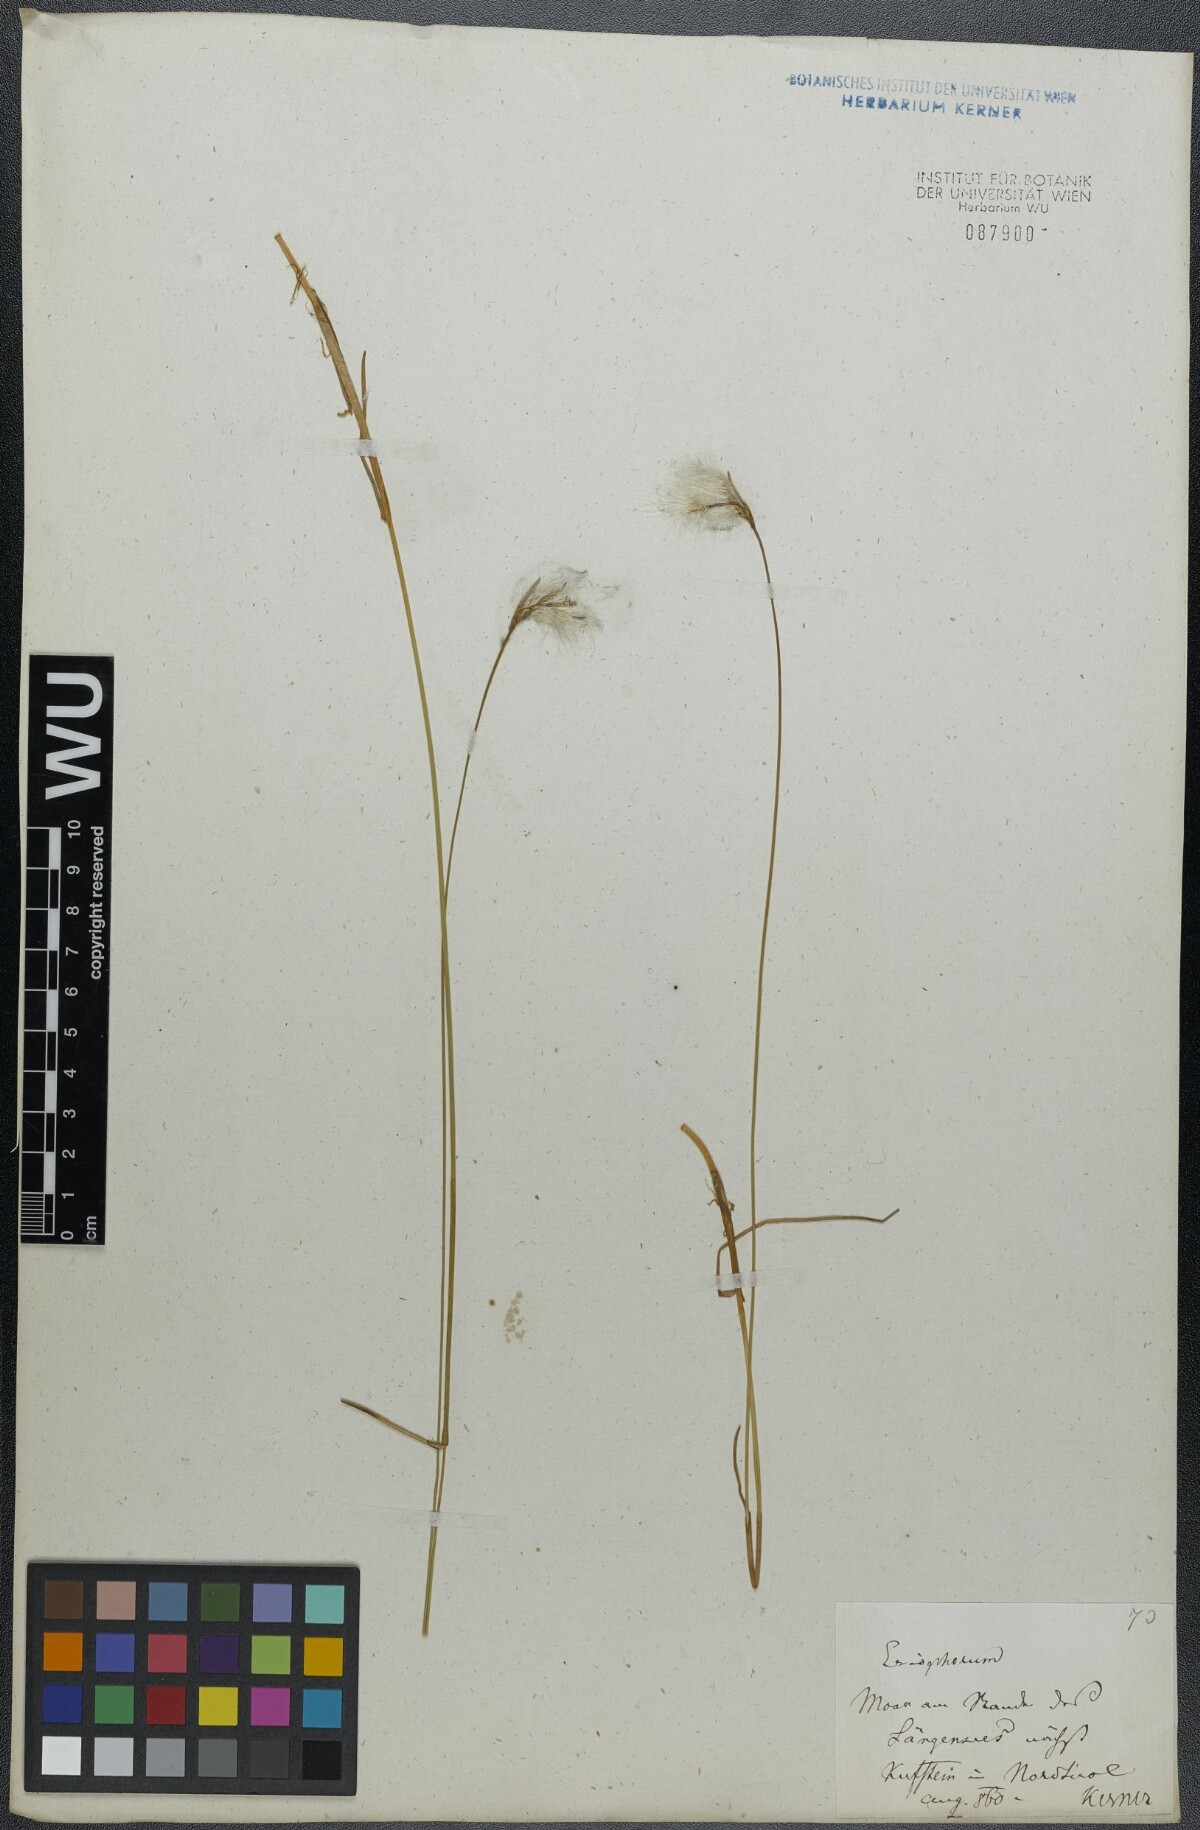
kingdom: Plantae
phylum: Tracheophyta
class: Liliopsida
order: Poales
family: Cyperaceae
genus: Eriophorum
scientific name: Eriophorum gracile
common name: Slender cottongrass
